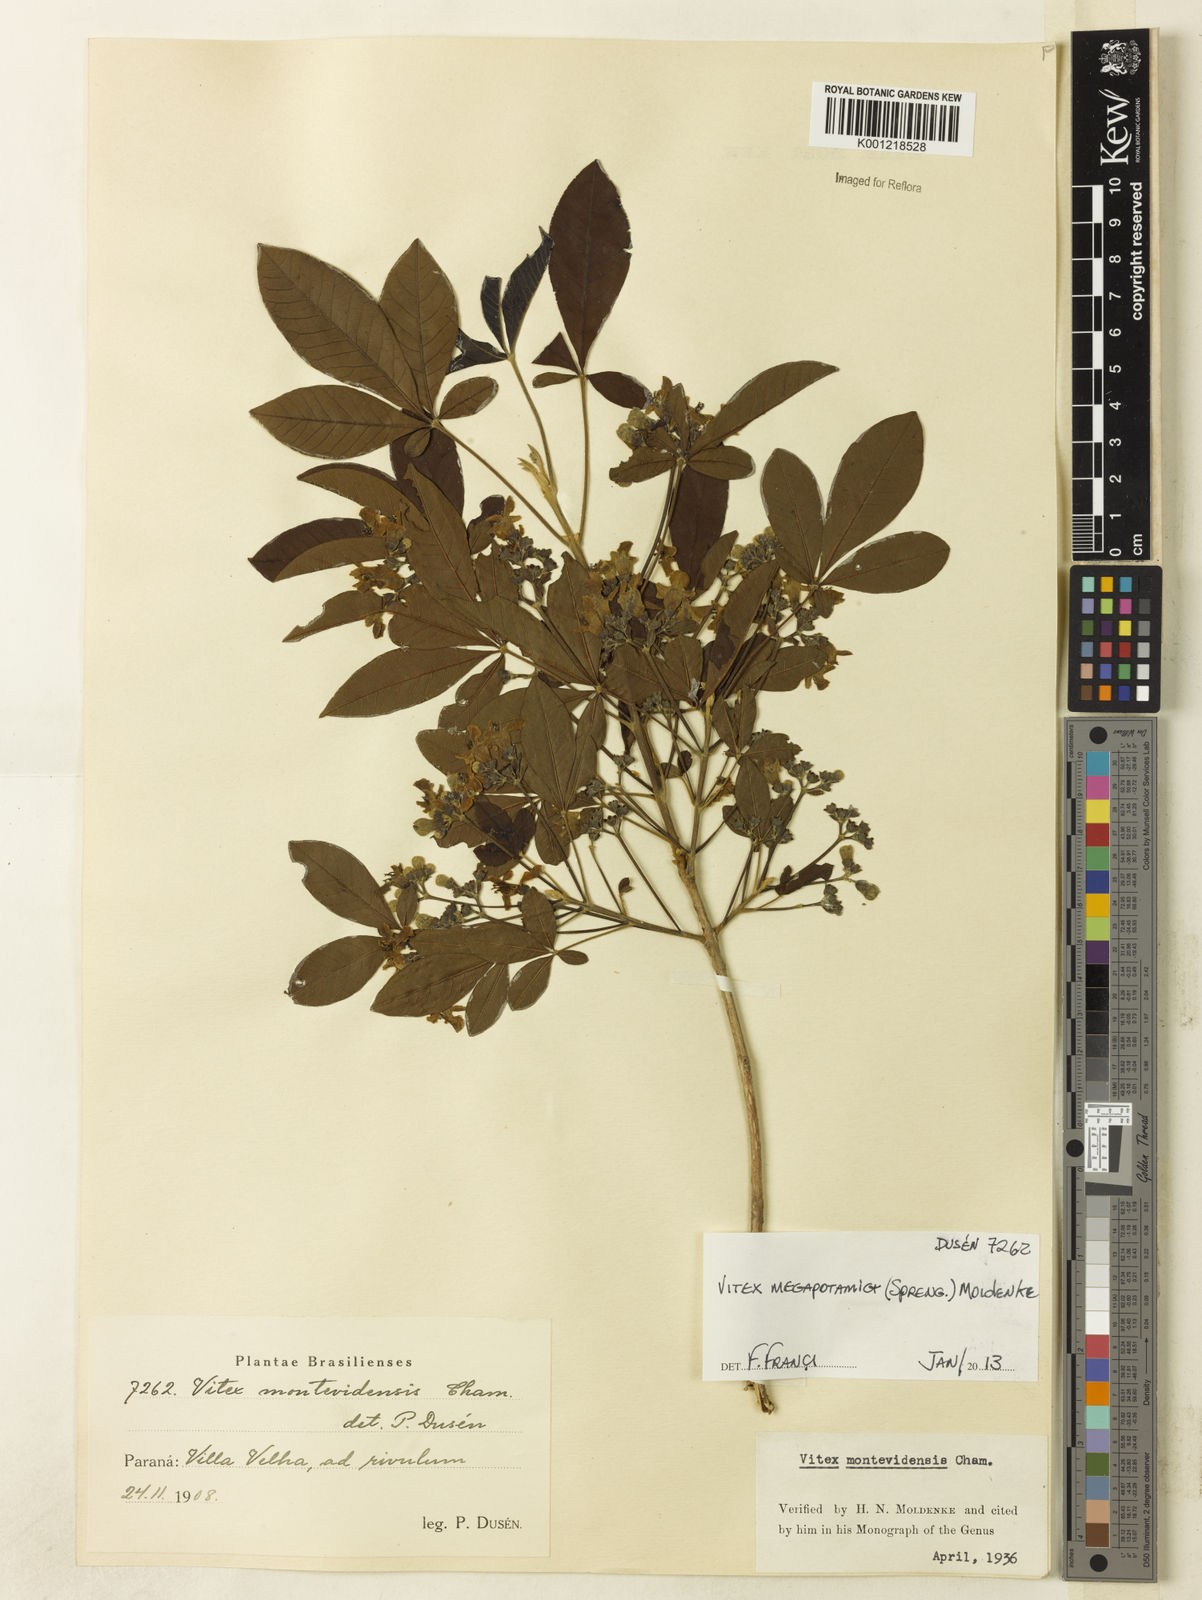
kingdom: Plantae
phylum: Tracheophyta
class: Magnoliopsida
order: Lamiales
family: Lamiaceae
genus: Vitex
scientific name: Vitex megapotamica
